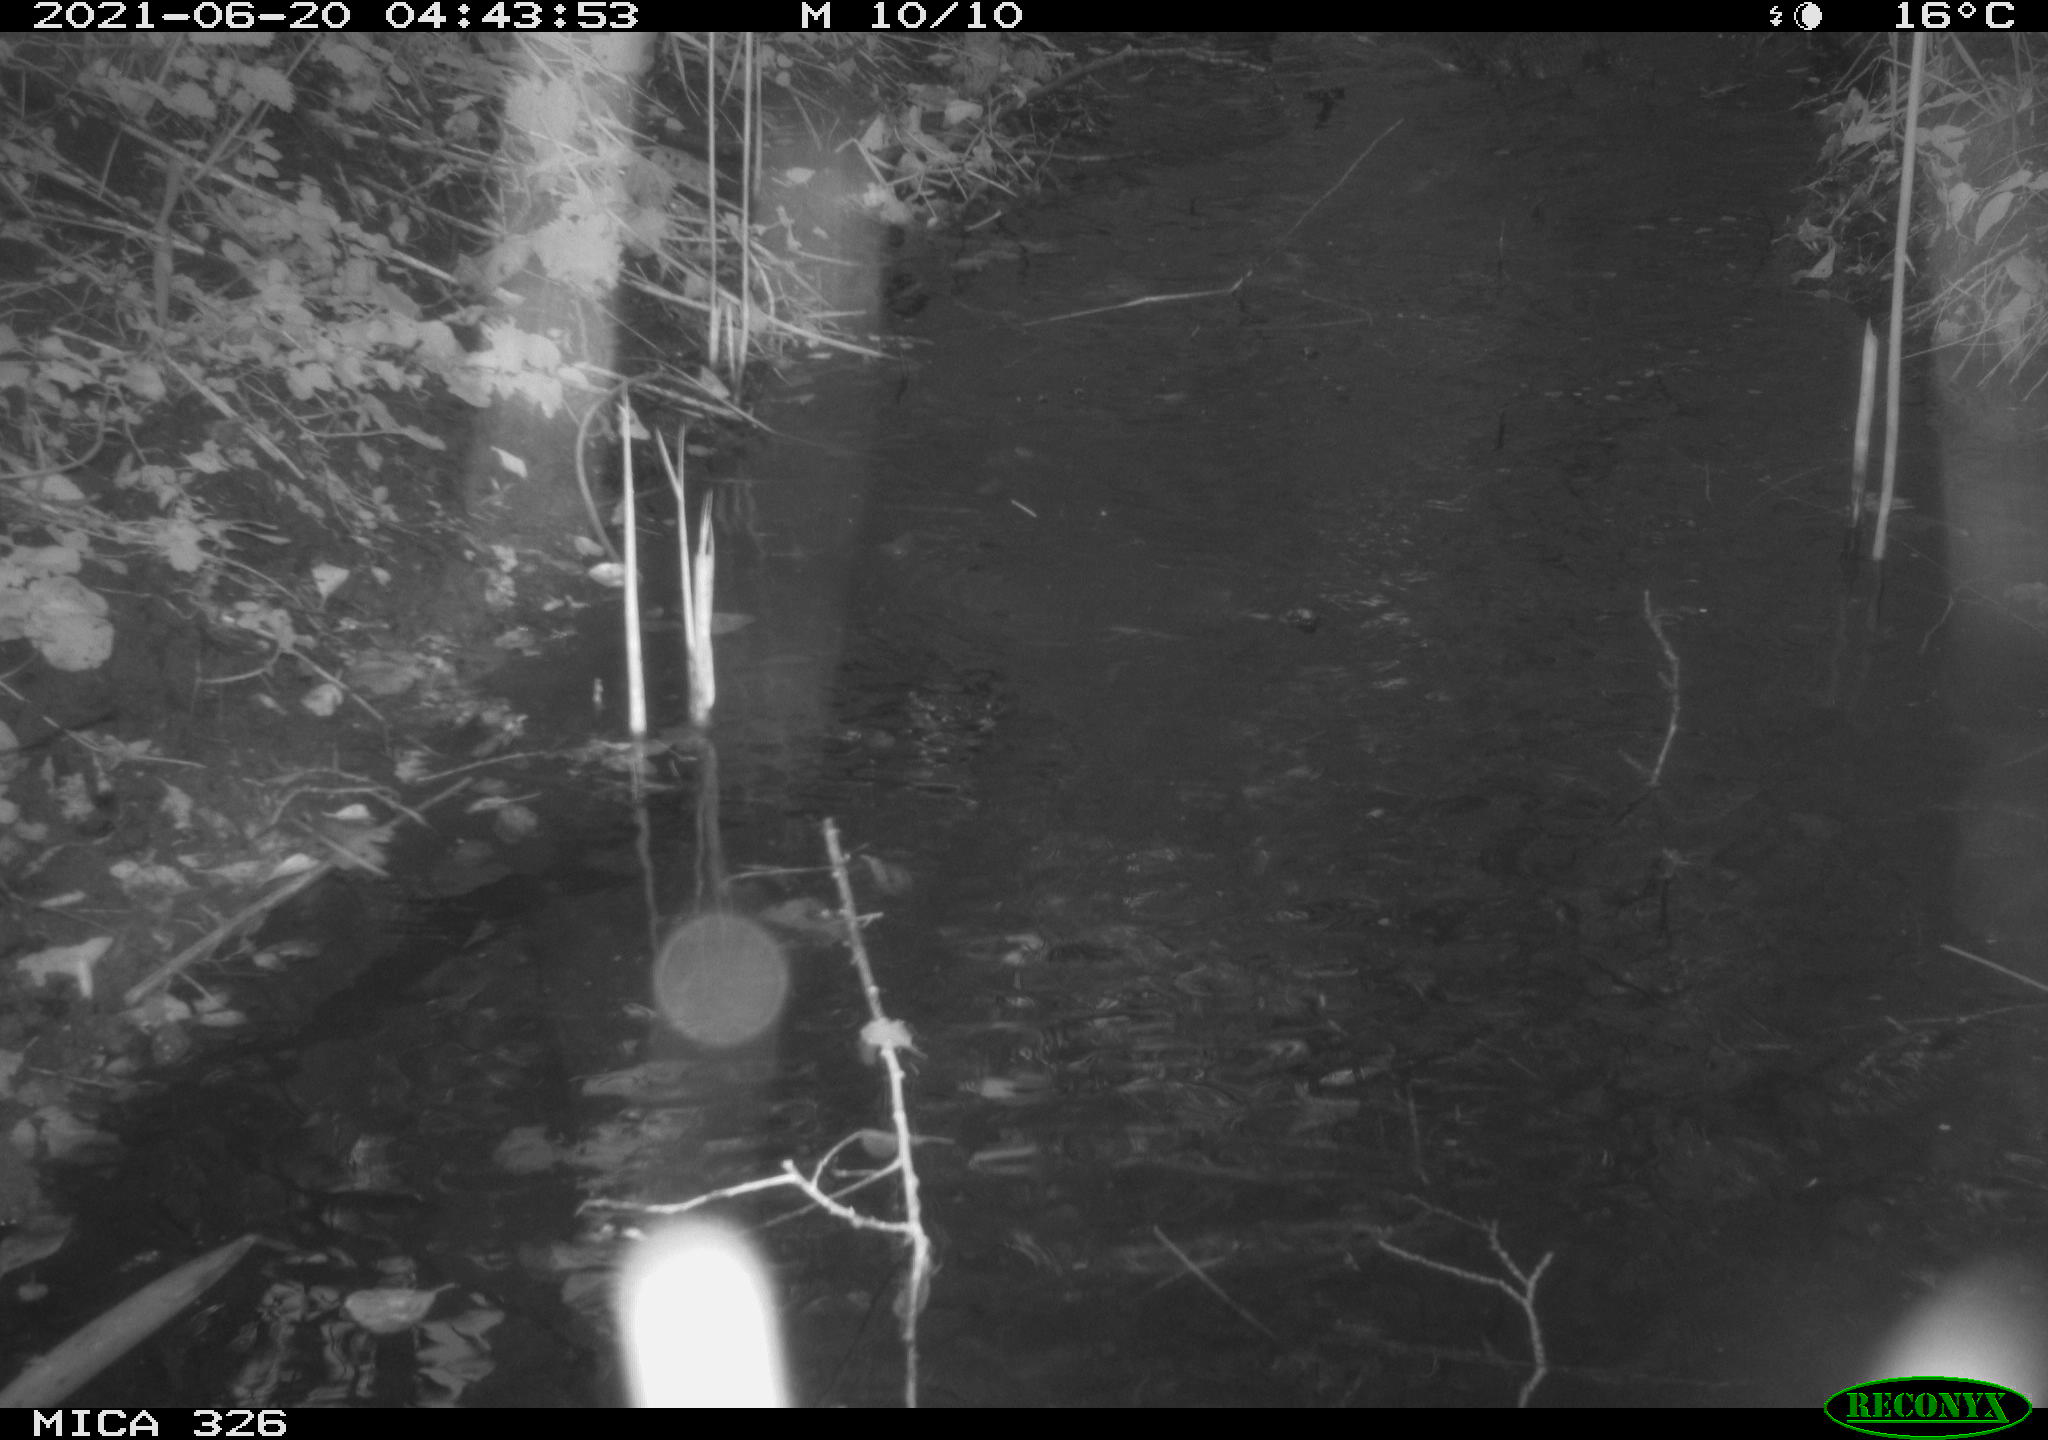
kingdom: Animalia
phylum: Chordata
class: Mammalia
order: Carnivora
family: Mustelidae
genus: Lutra
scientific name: Lutra lutra
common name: European otter
